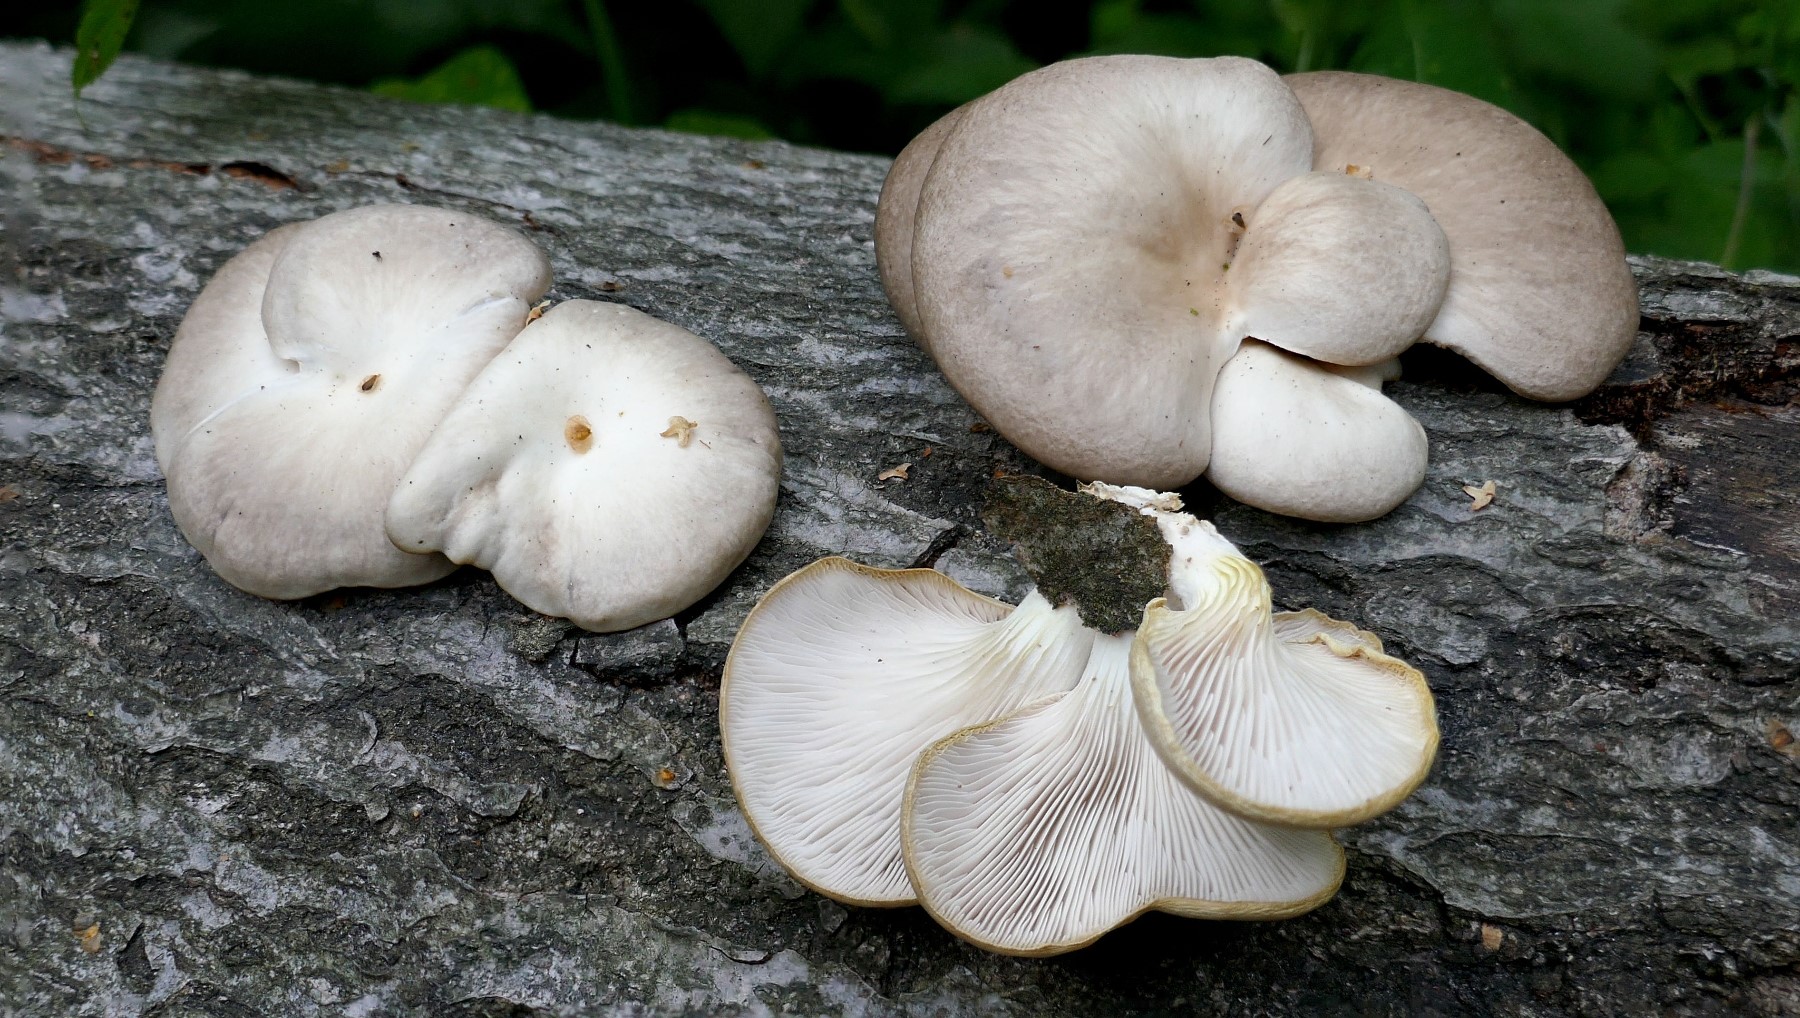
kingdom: Fungi
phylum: Basidiomycota
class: Agaricomycetes
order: Agaricales
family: Pleurotaceae
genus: Pleurotus
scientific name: Pleurotus pulmonarius
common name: sommer-østershat
